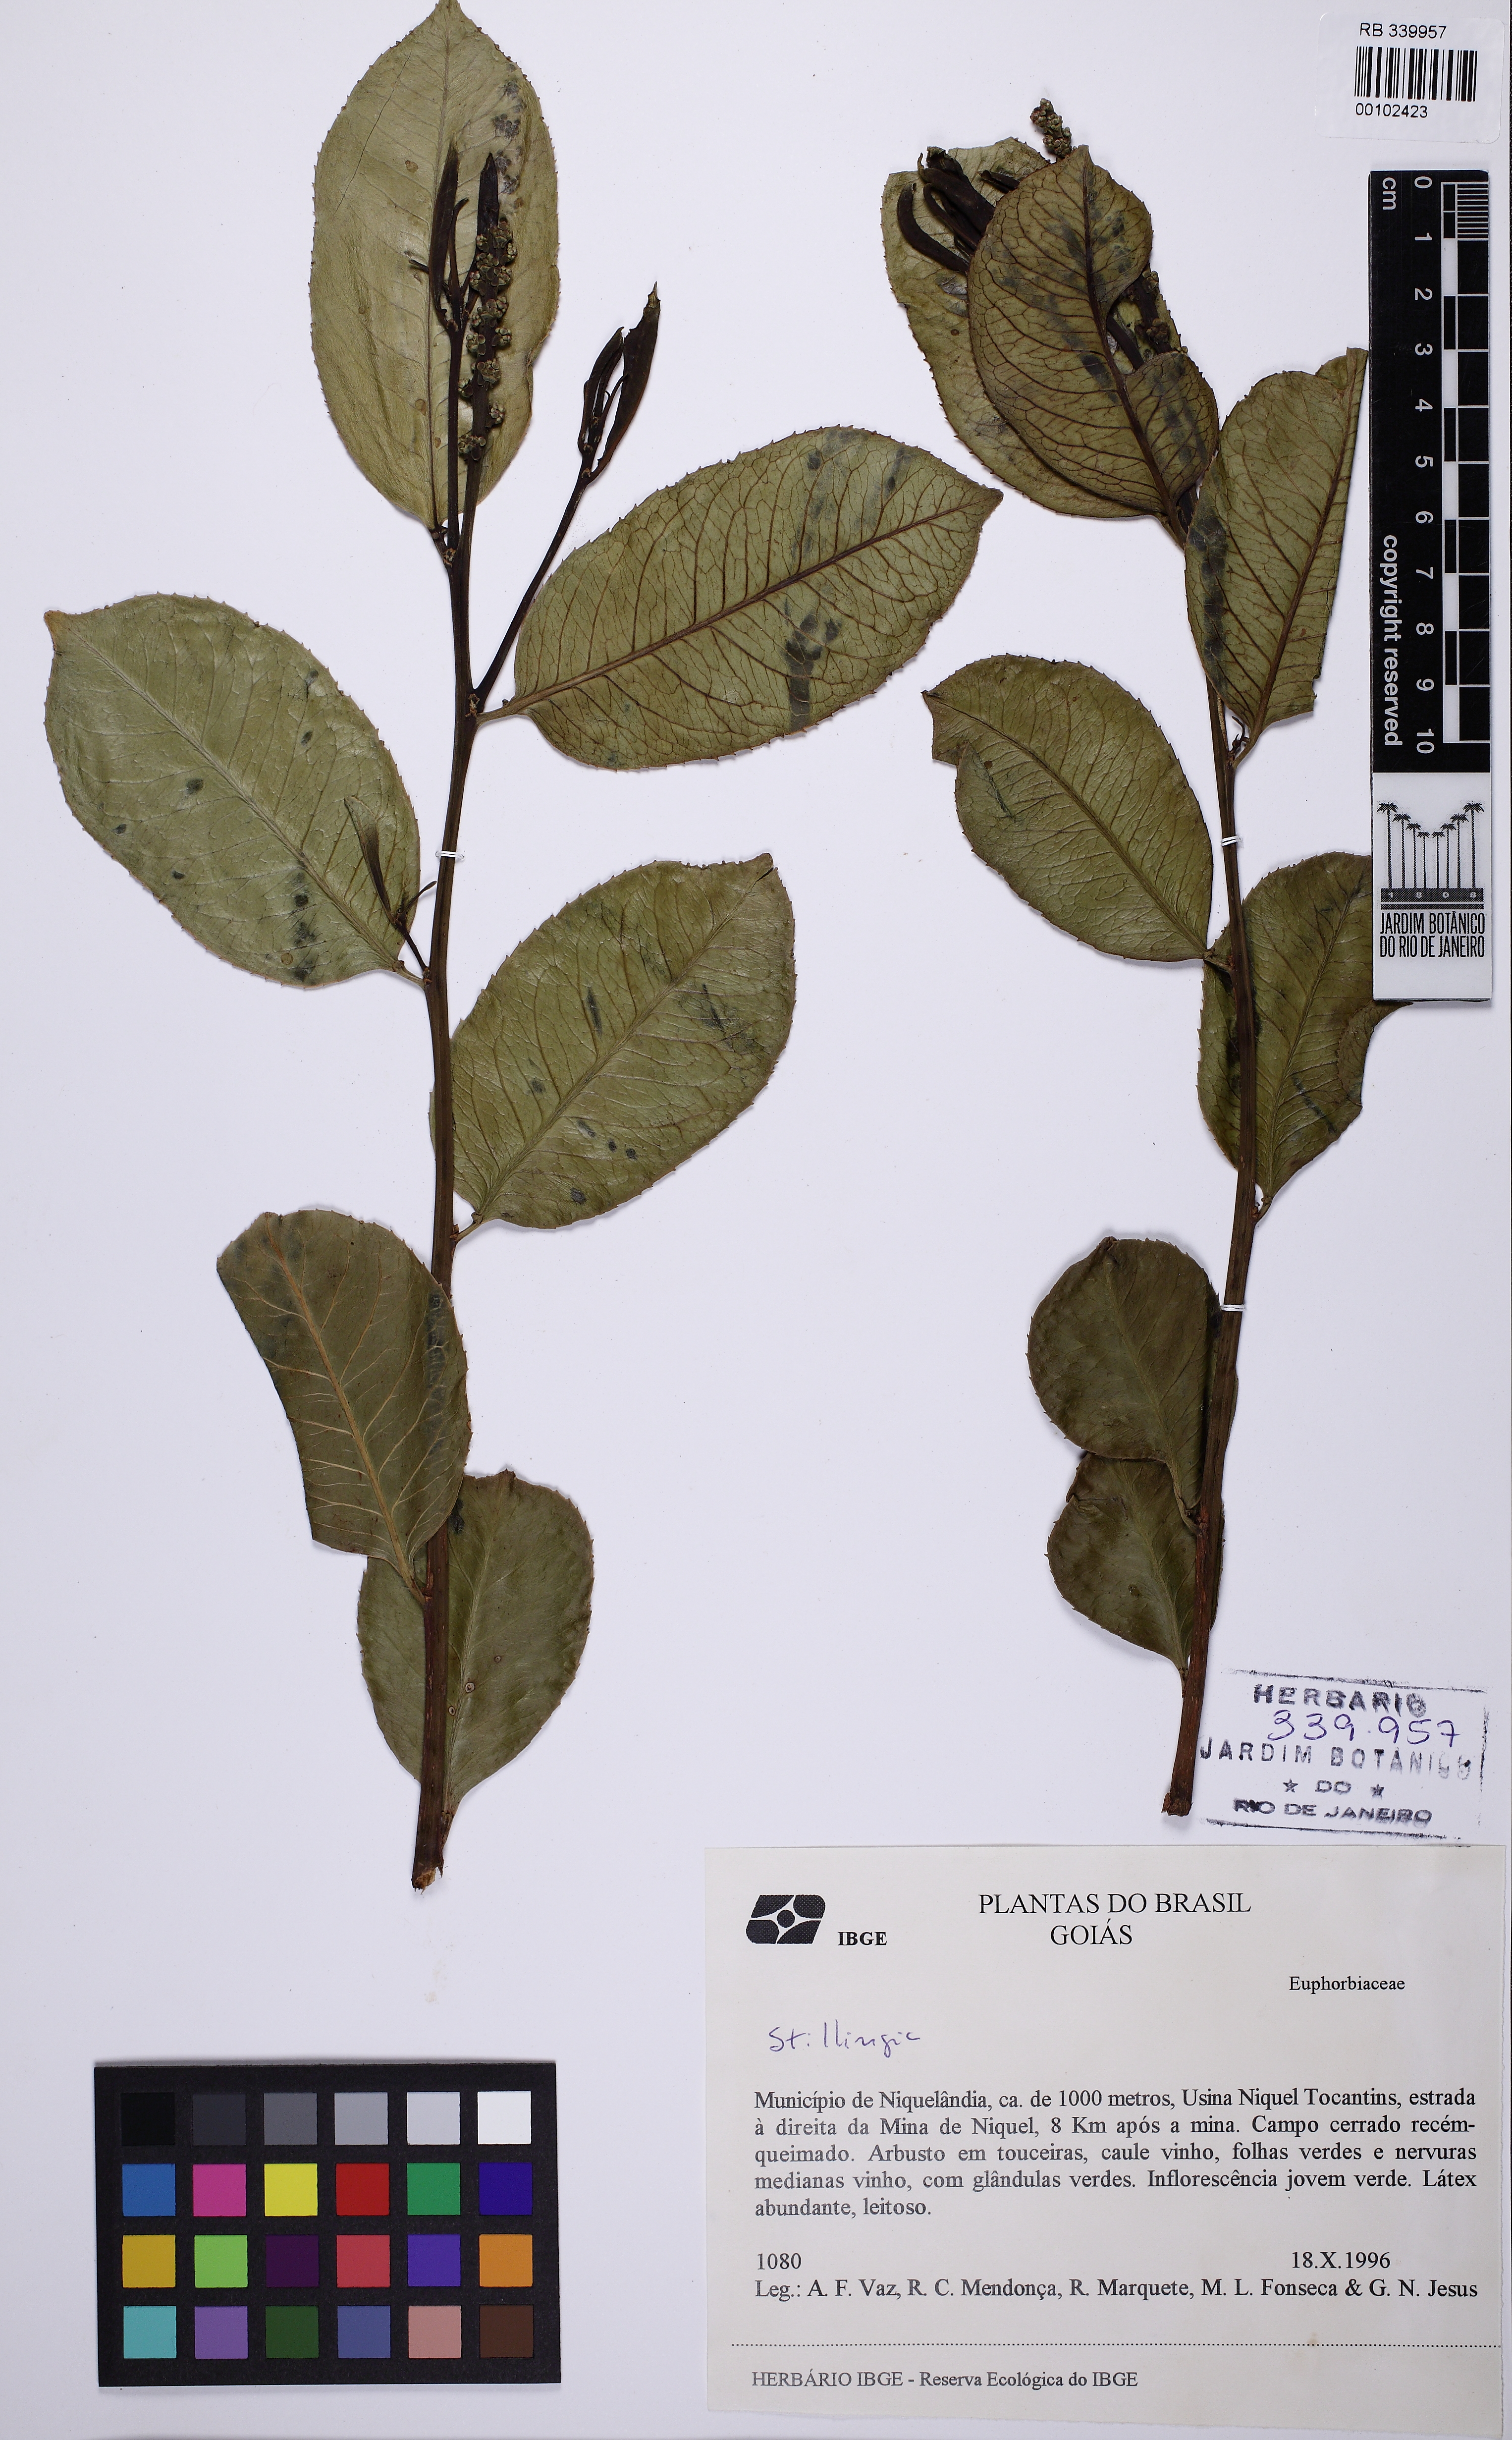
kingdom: Plantae
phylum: Tracheophyta
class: Magnoliopsida
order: Malpighiales
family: Euphorbiaceae
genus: Stillingia
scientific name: Stillingia
